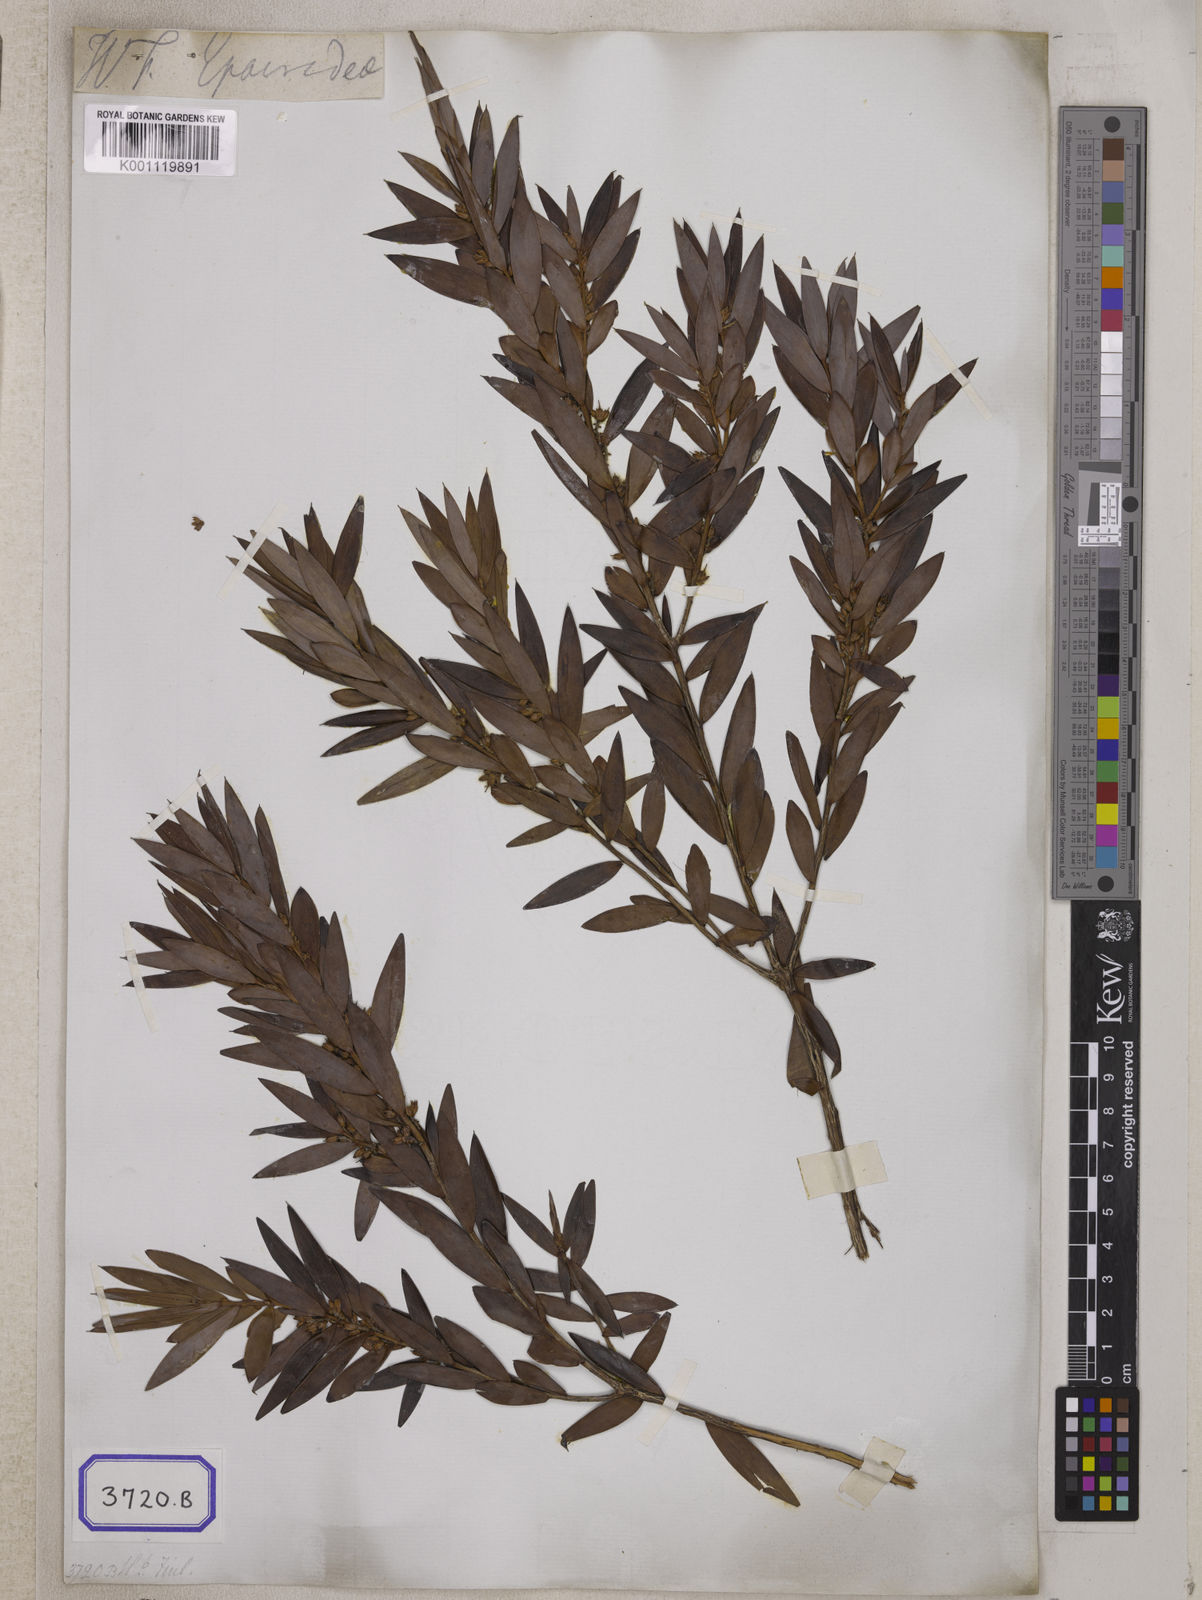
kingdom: Plantae
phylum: Tracheophyta
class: Magnoliopsida
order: Ericales
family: Ericaceae
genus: Styphelia
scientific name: Styphelia malayana
